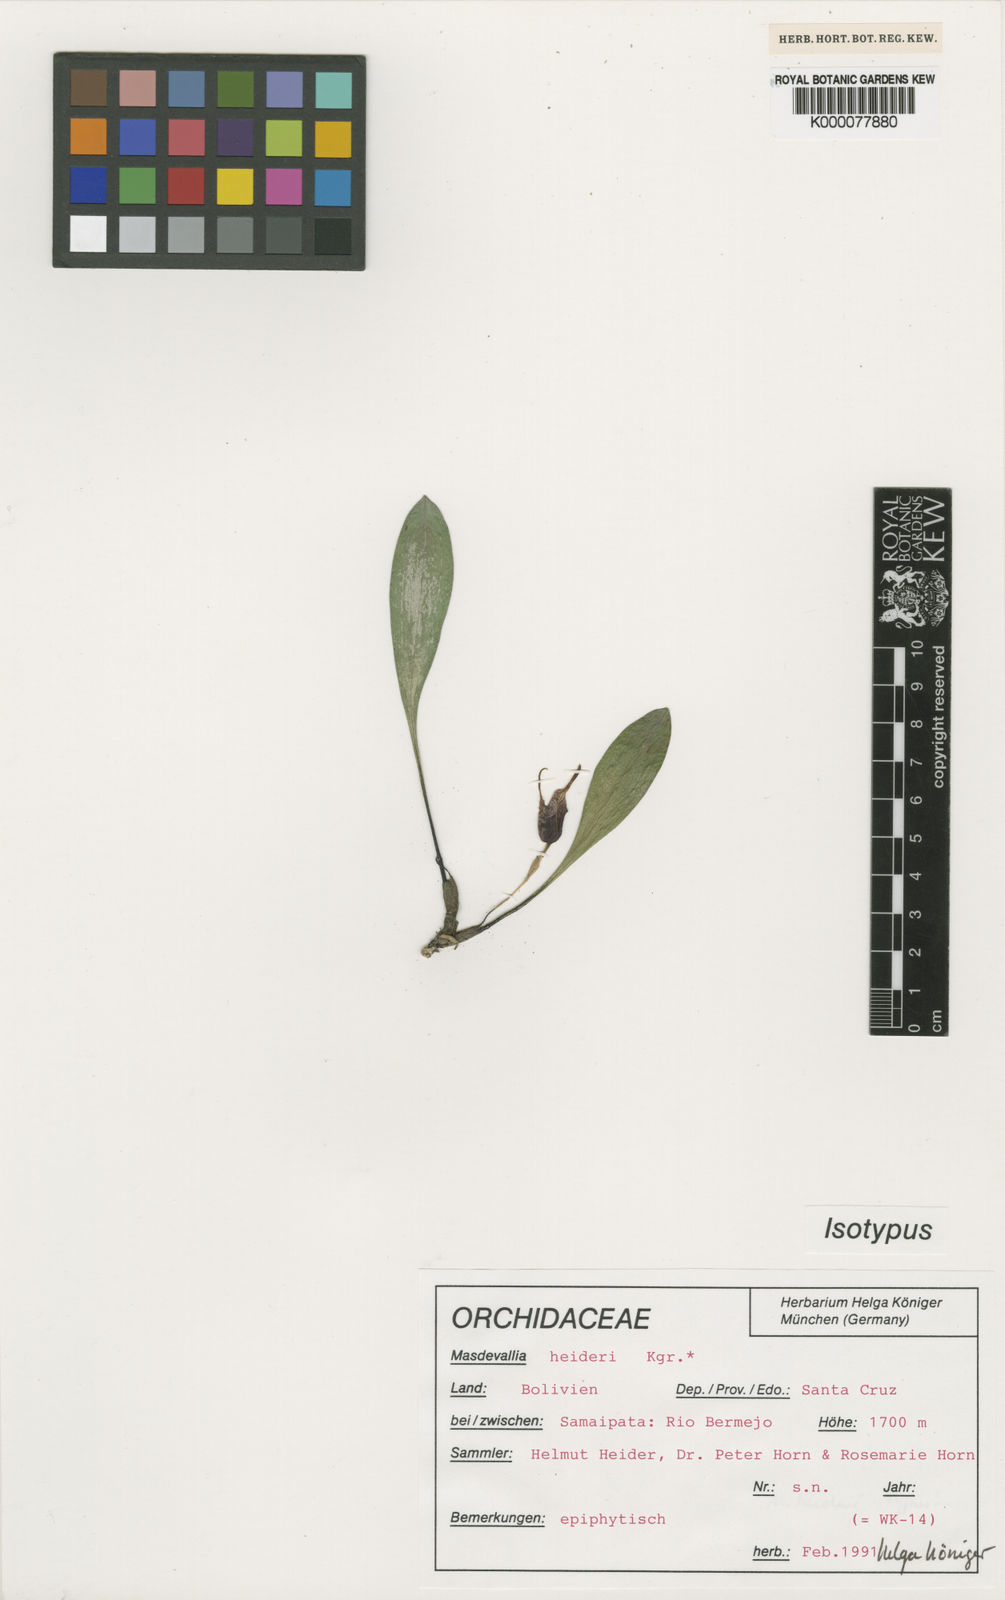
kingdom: Plantae
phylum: Tracheophyta
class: Liliopsida
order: Asparagales
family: Orchidaceae
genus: Masdevallia
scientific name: Masdevallia
